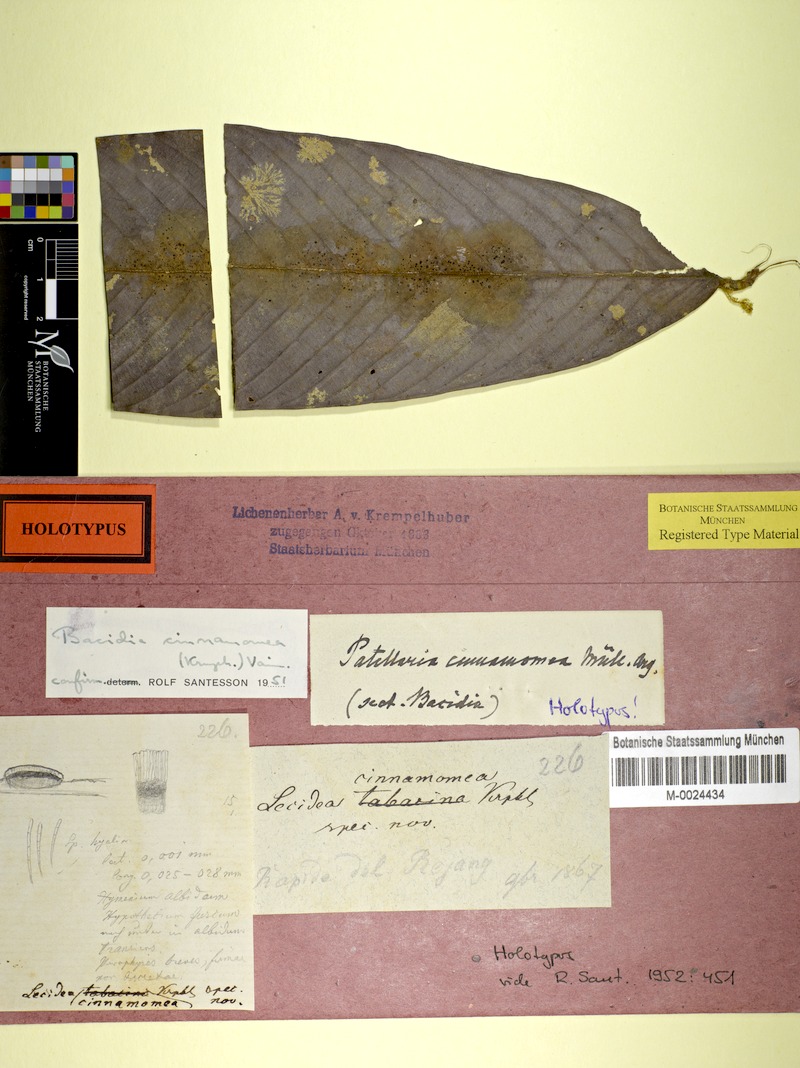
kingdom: Fungi
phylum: Ascomycota
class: Lecanoromycetes
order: Lecanorales
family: Ramalinaceae
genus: Bacidia
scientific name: Bacidia cinnamomea
